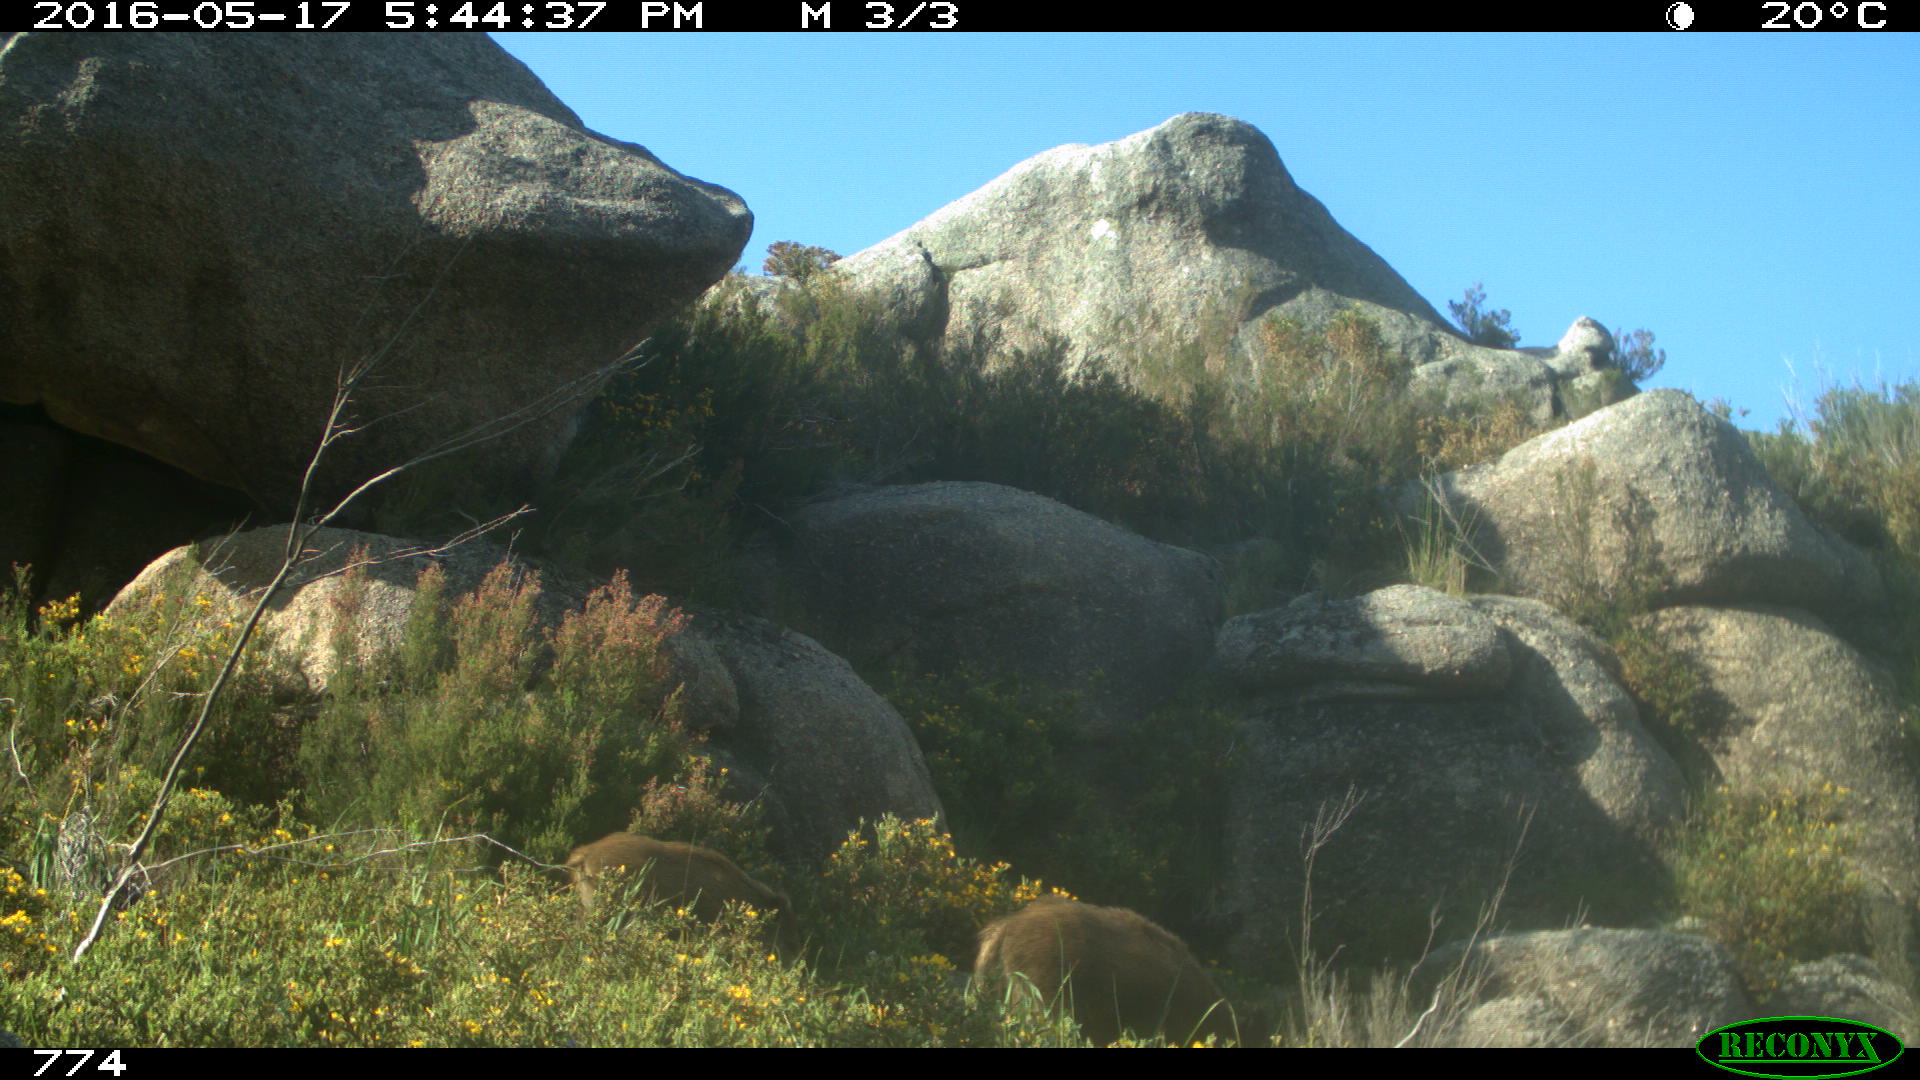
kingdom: Animalia
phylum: Chordata
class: Mammalia
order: Artiodactyla
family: Suidae
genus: Sus
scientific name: Sus scrofa
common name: Wild boar
